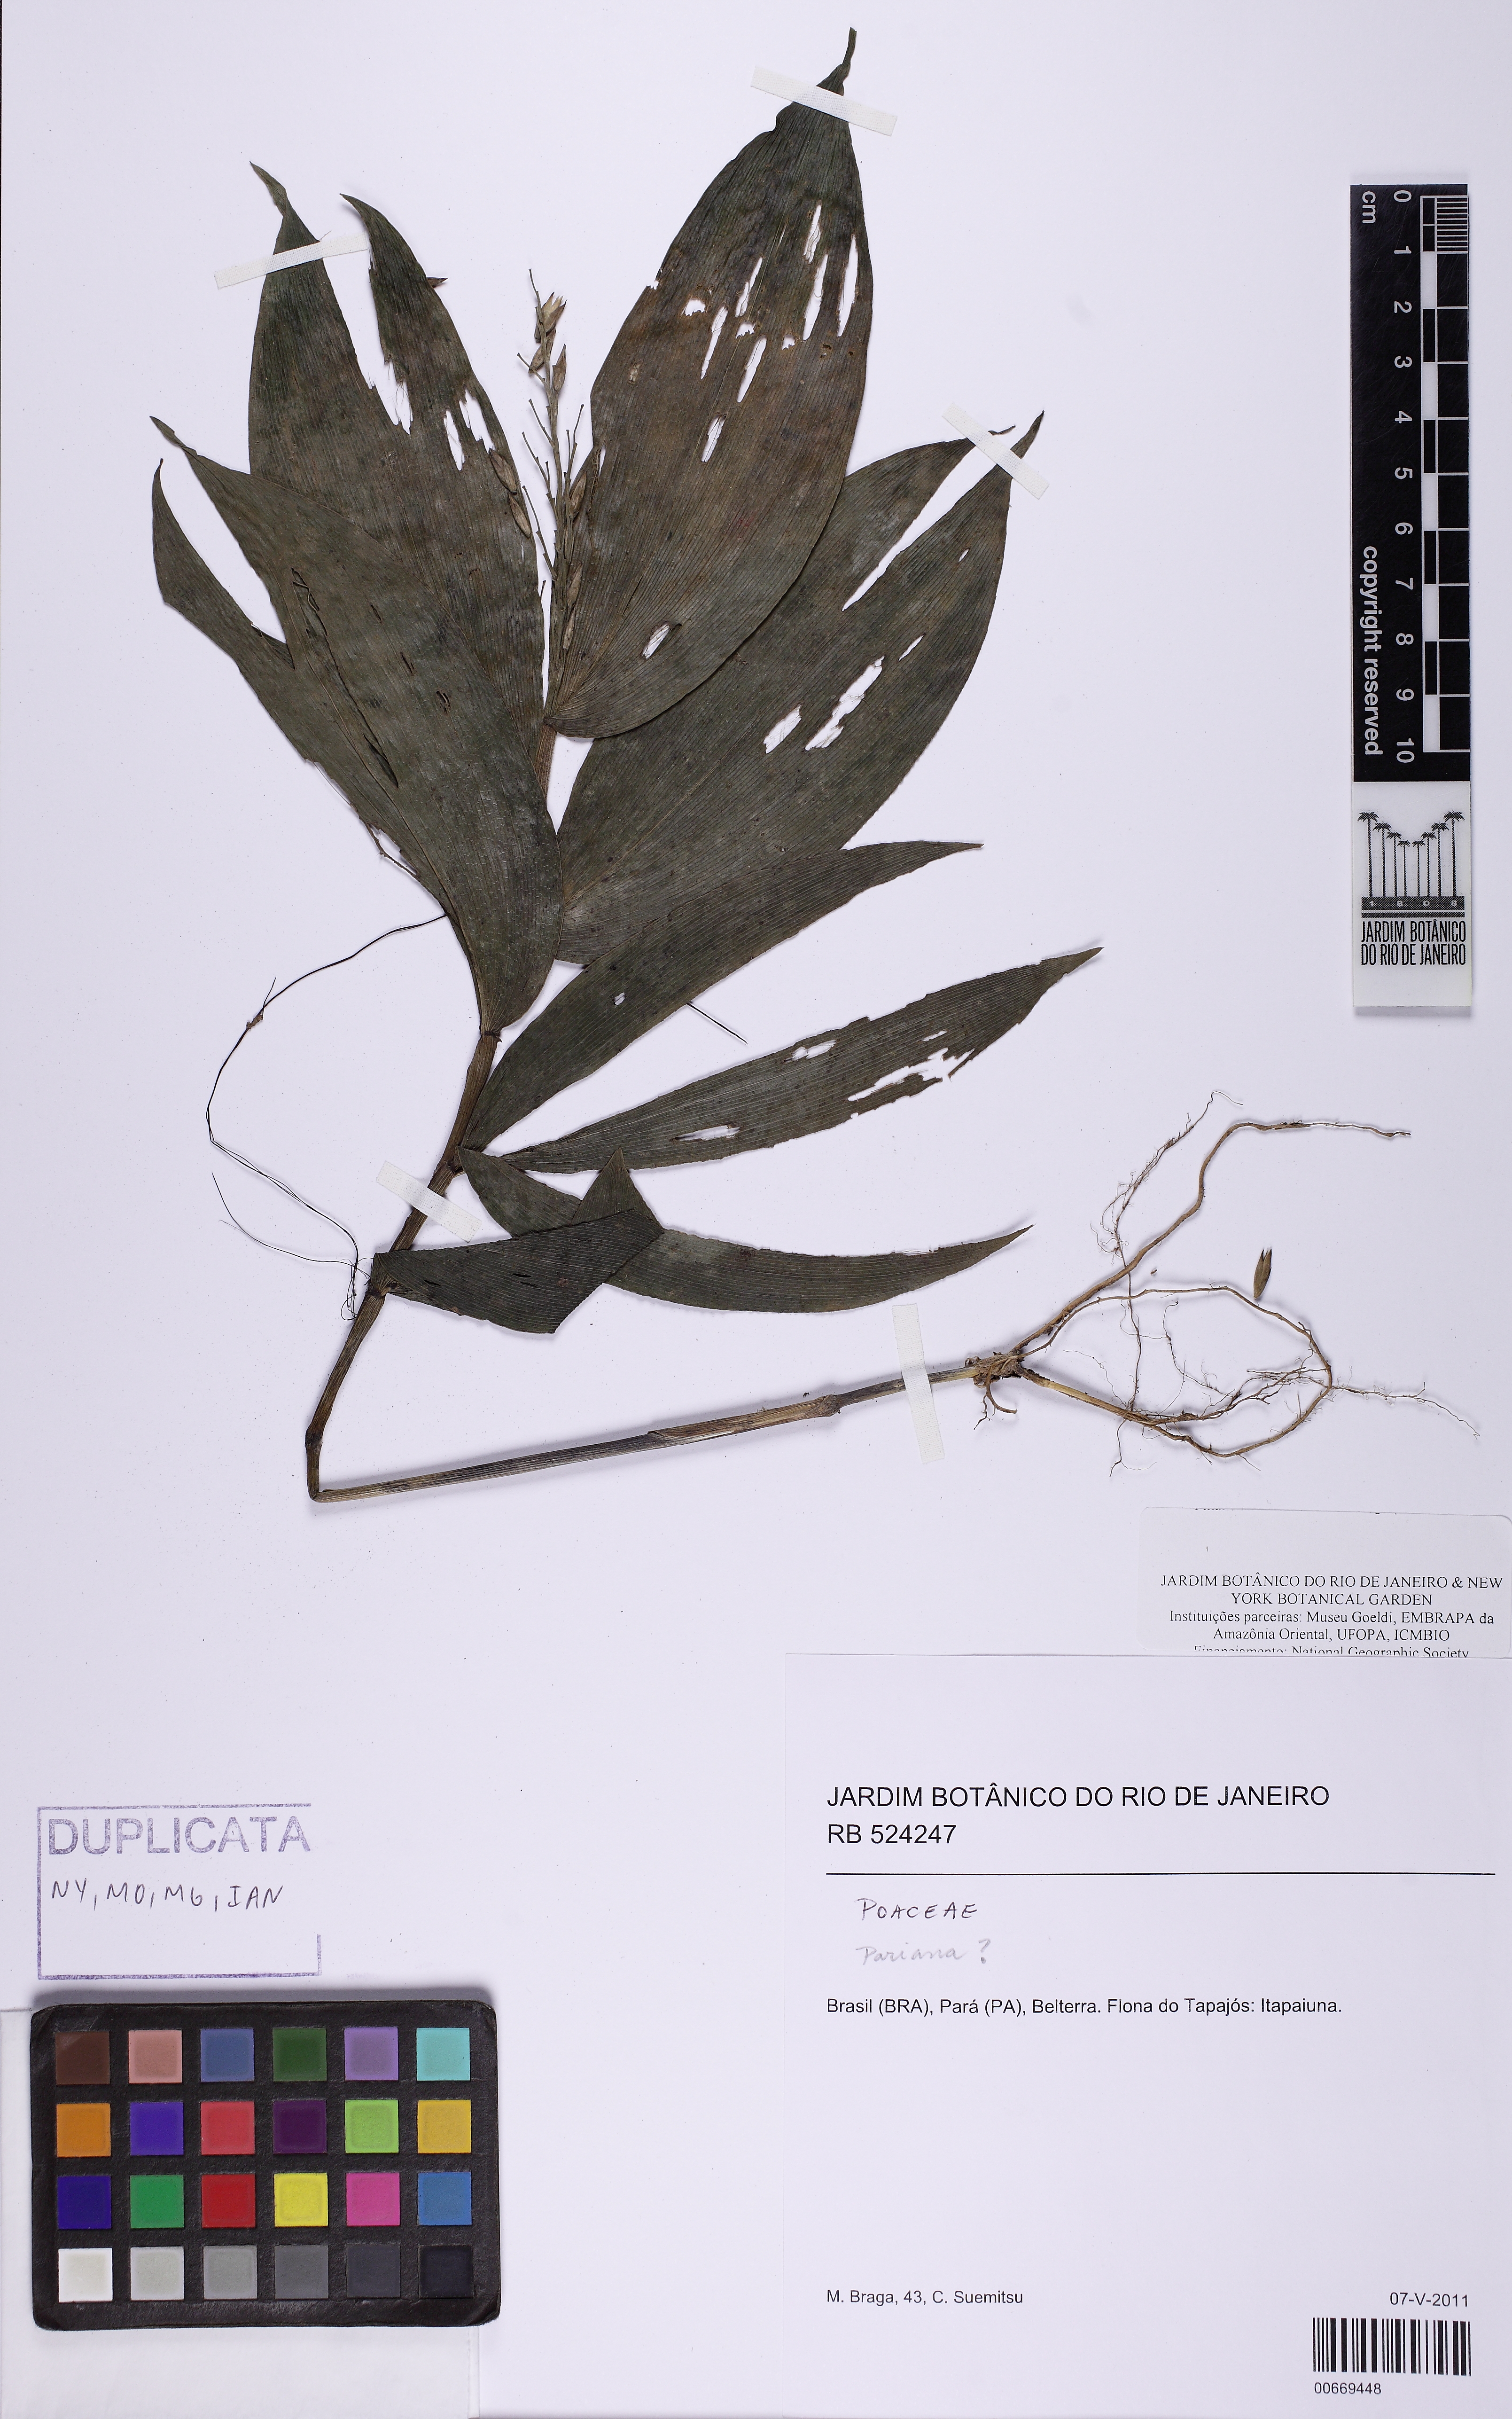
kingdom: Plantae
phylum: Tracheophyta
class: Liliopsida
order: Poales
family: Poaceae
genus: Ichnanthus
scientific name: Ichnanthus panicoides
